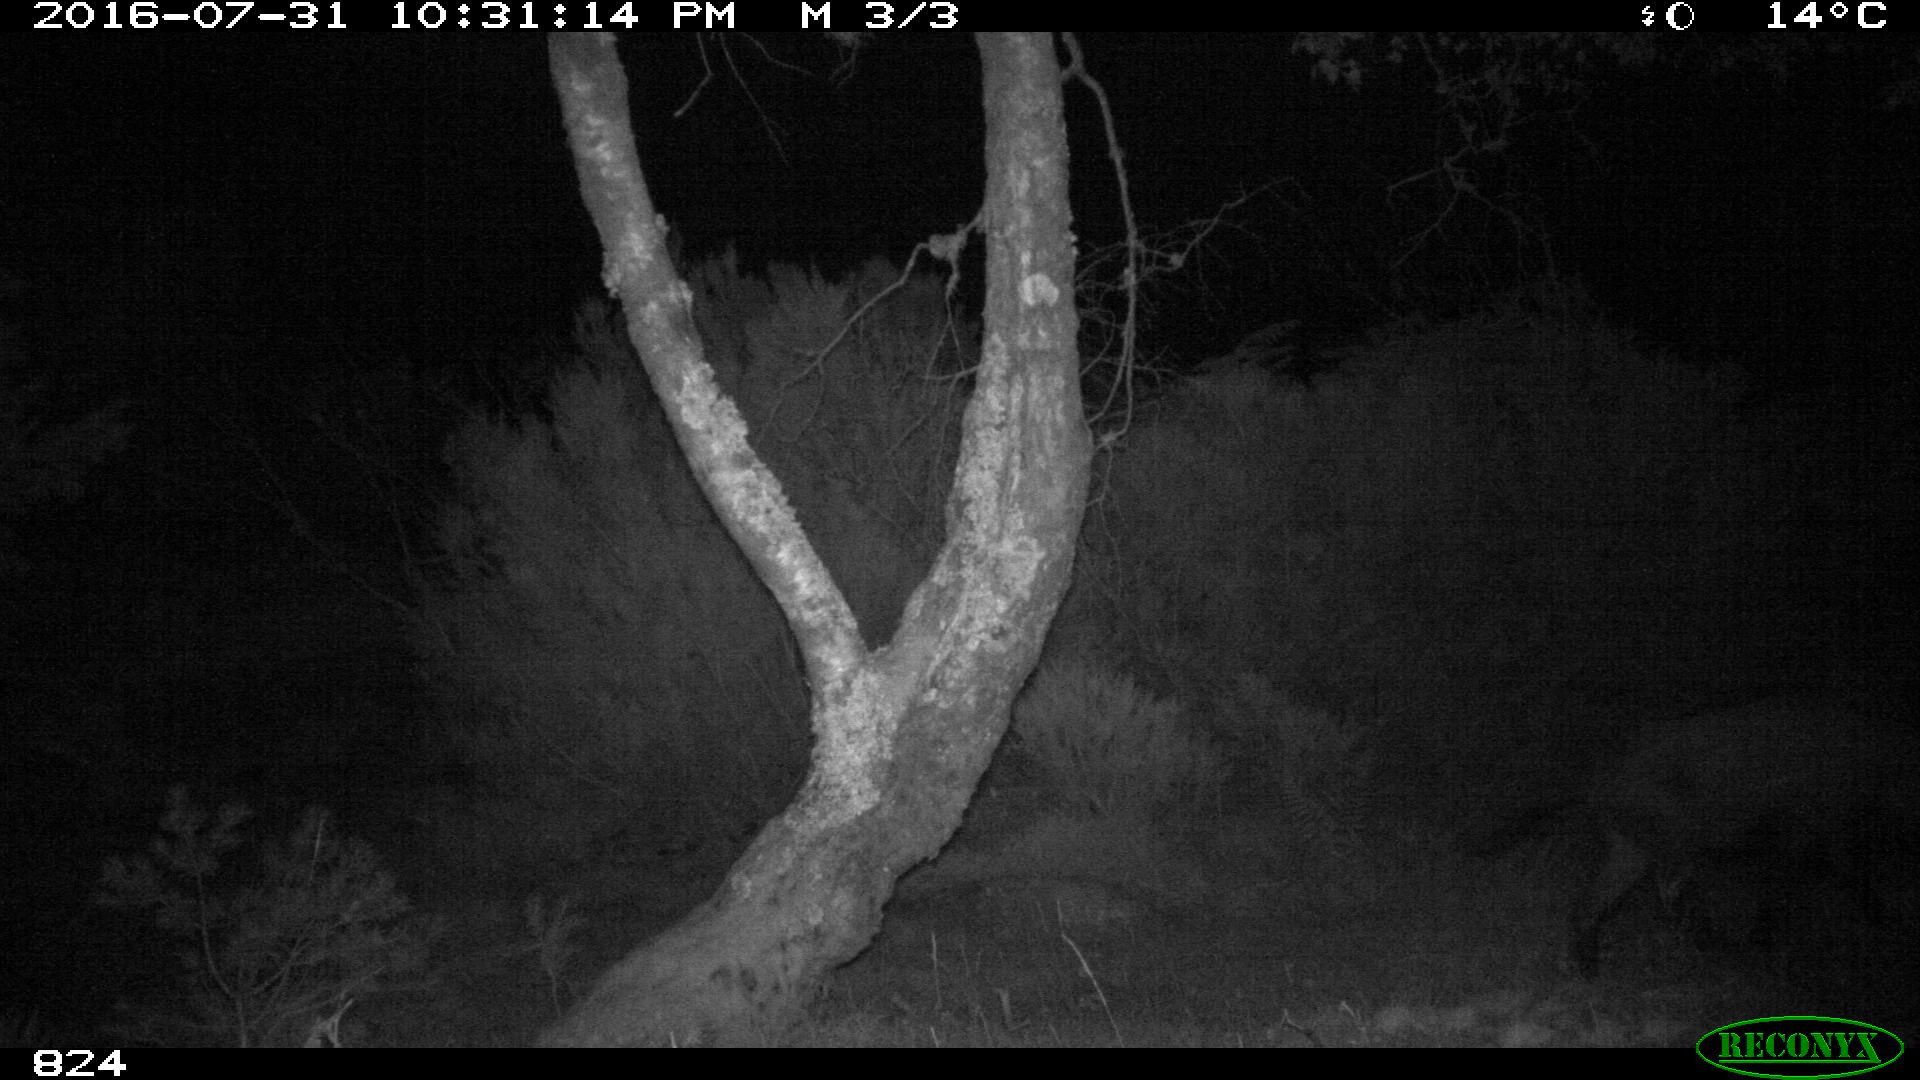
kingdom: Animalia
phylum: Chordata
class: Mammalia
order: Artiodactyla
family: Suidae
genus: Sus
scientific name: Sus scrofa
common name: Wild boar
